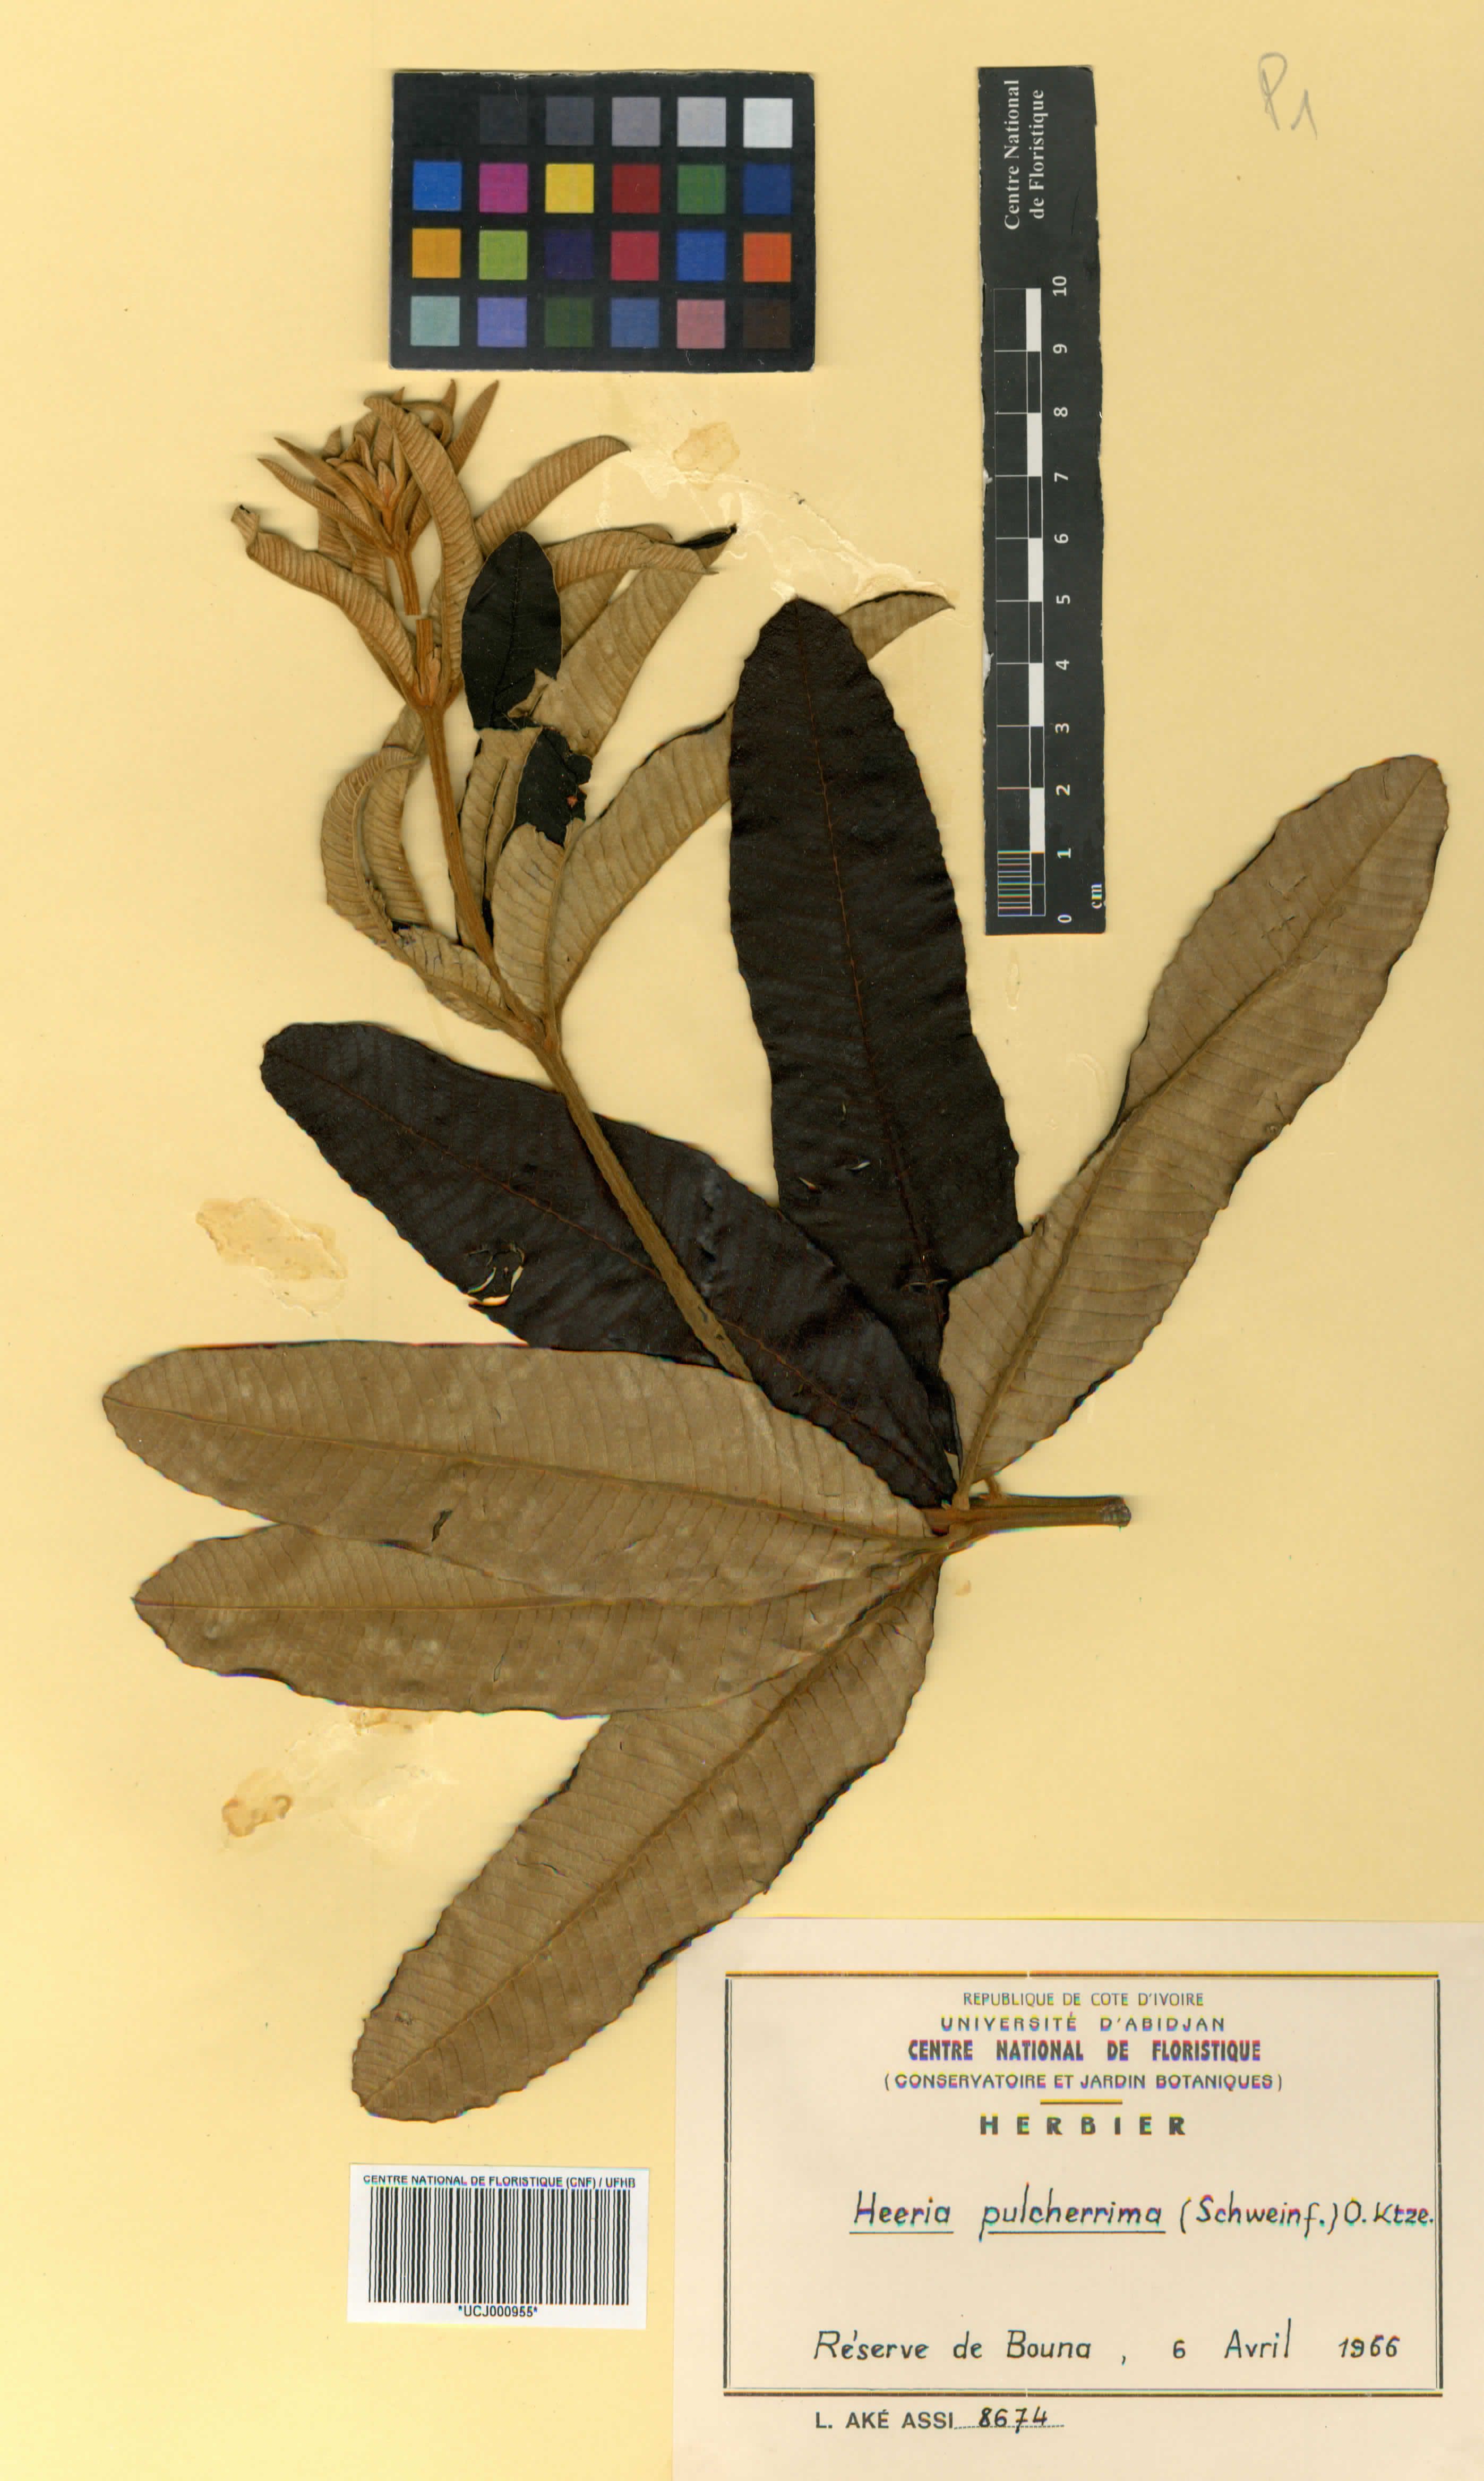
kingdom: Plantae
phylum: Tracheophyta
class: Magnoliopsida
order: Sapindales
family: Anacardiaceae
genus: Ozoroa
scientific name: Ozoroa pulcherrima
